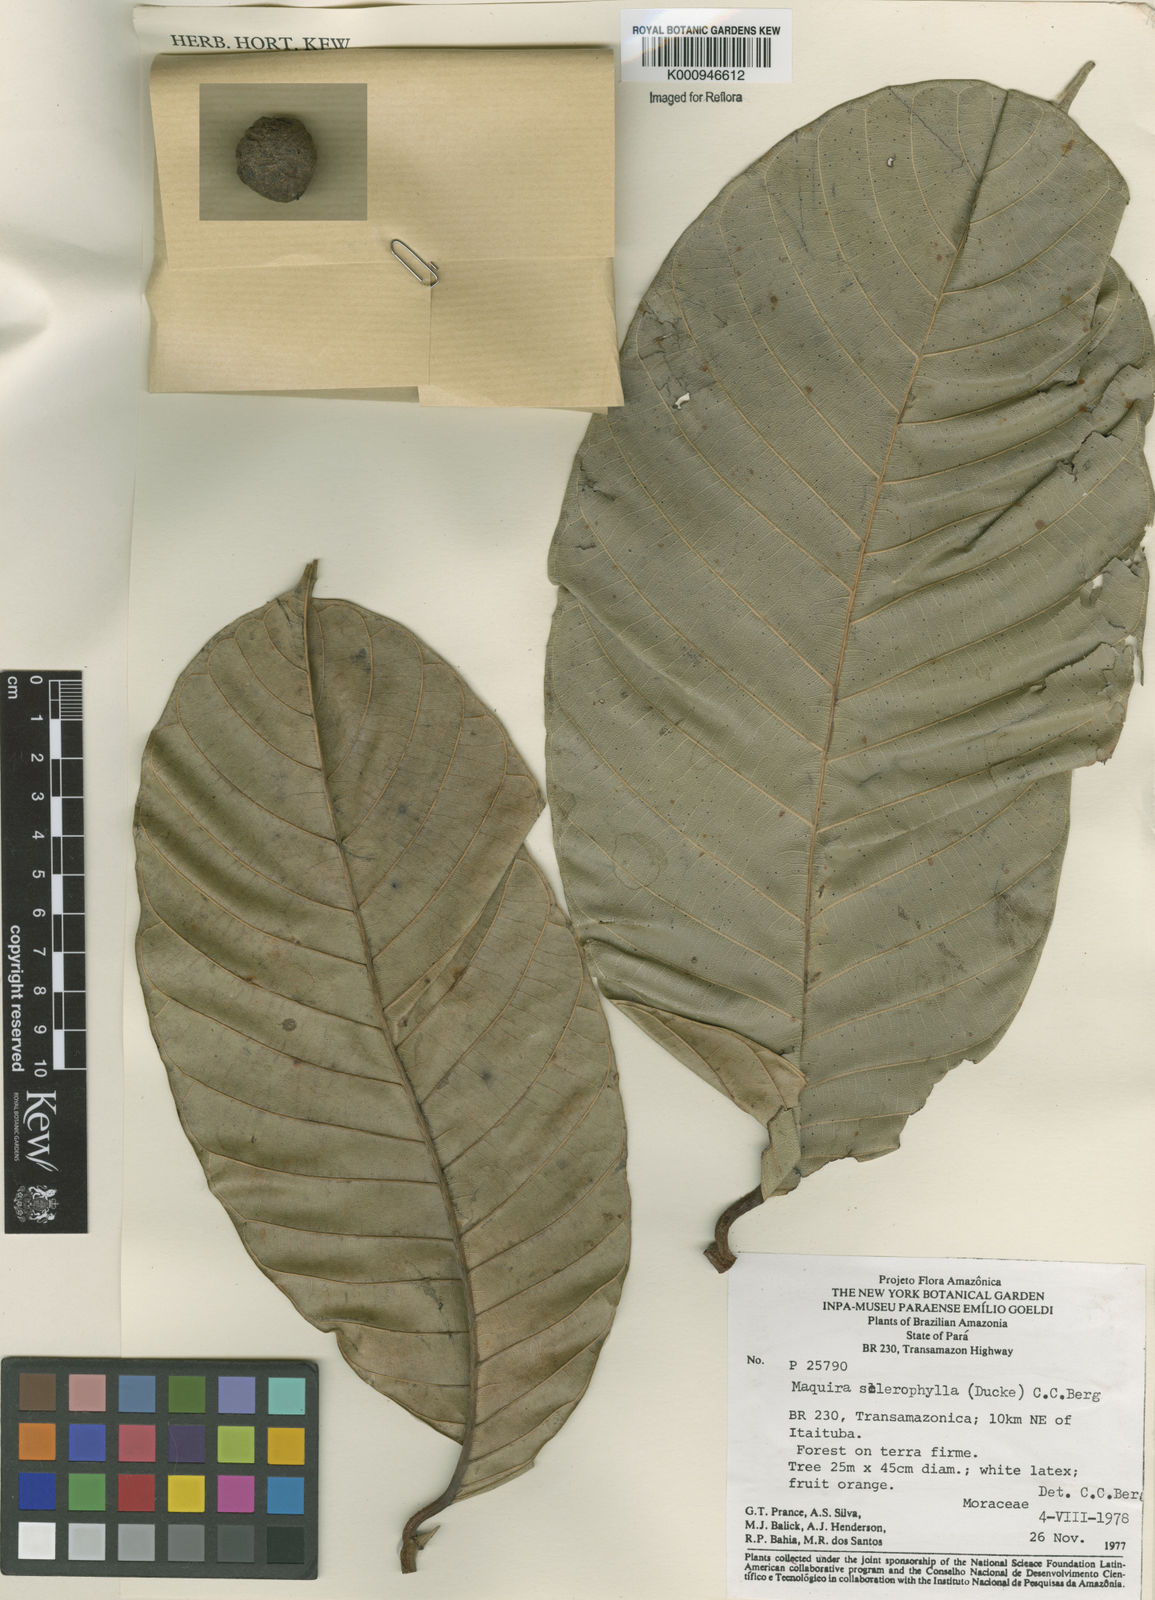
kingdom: Plantae
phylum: Tracheophyta
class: Magnoliopsida
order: Rosales
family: Moraceae
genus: Maquira
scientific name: Maquira sclerophylla
